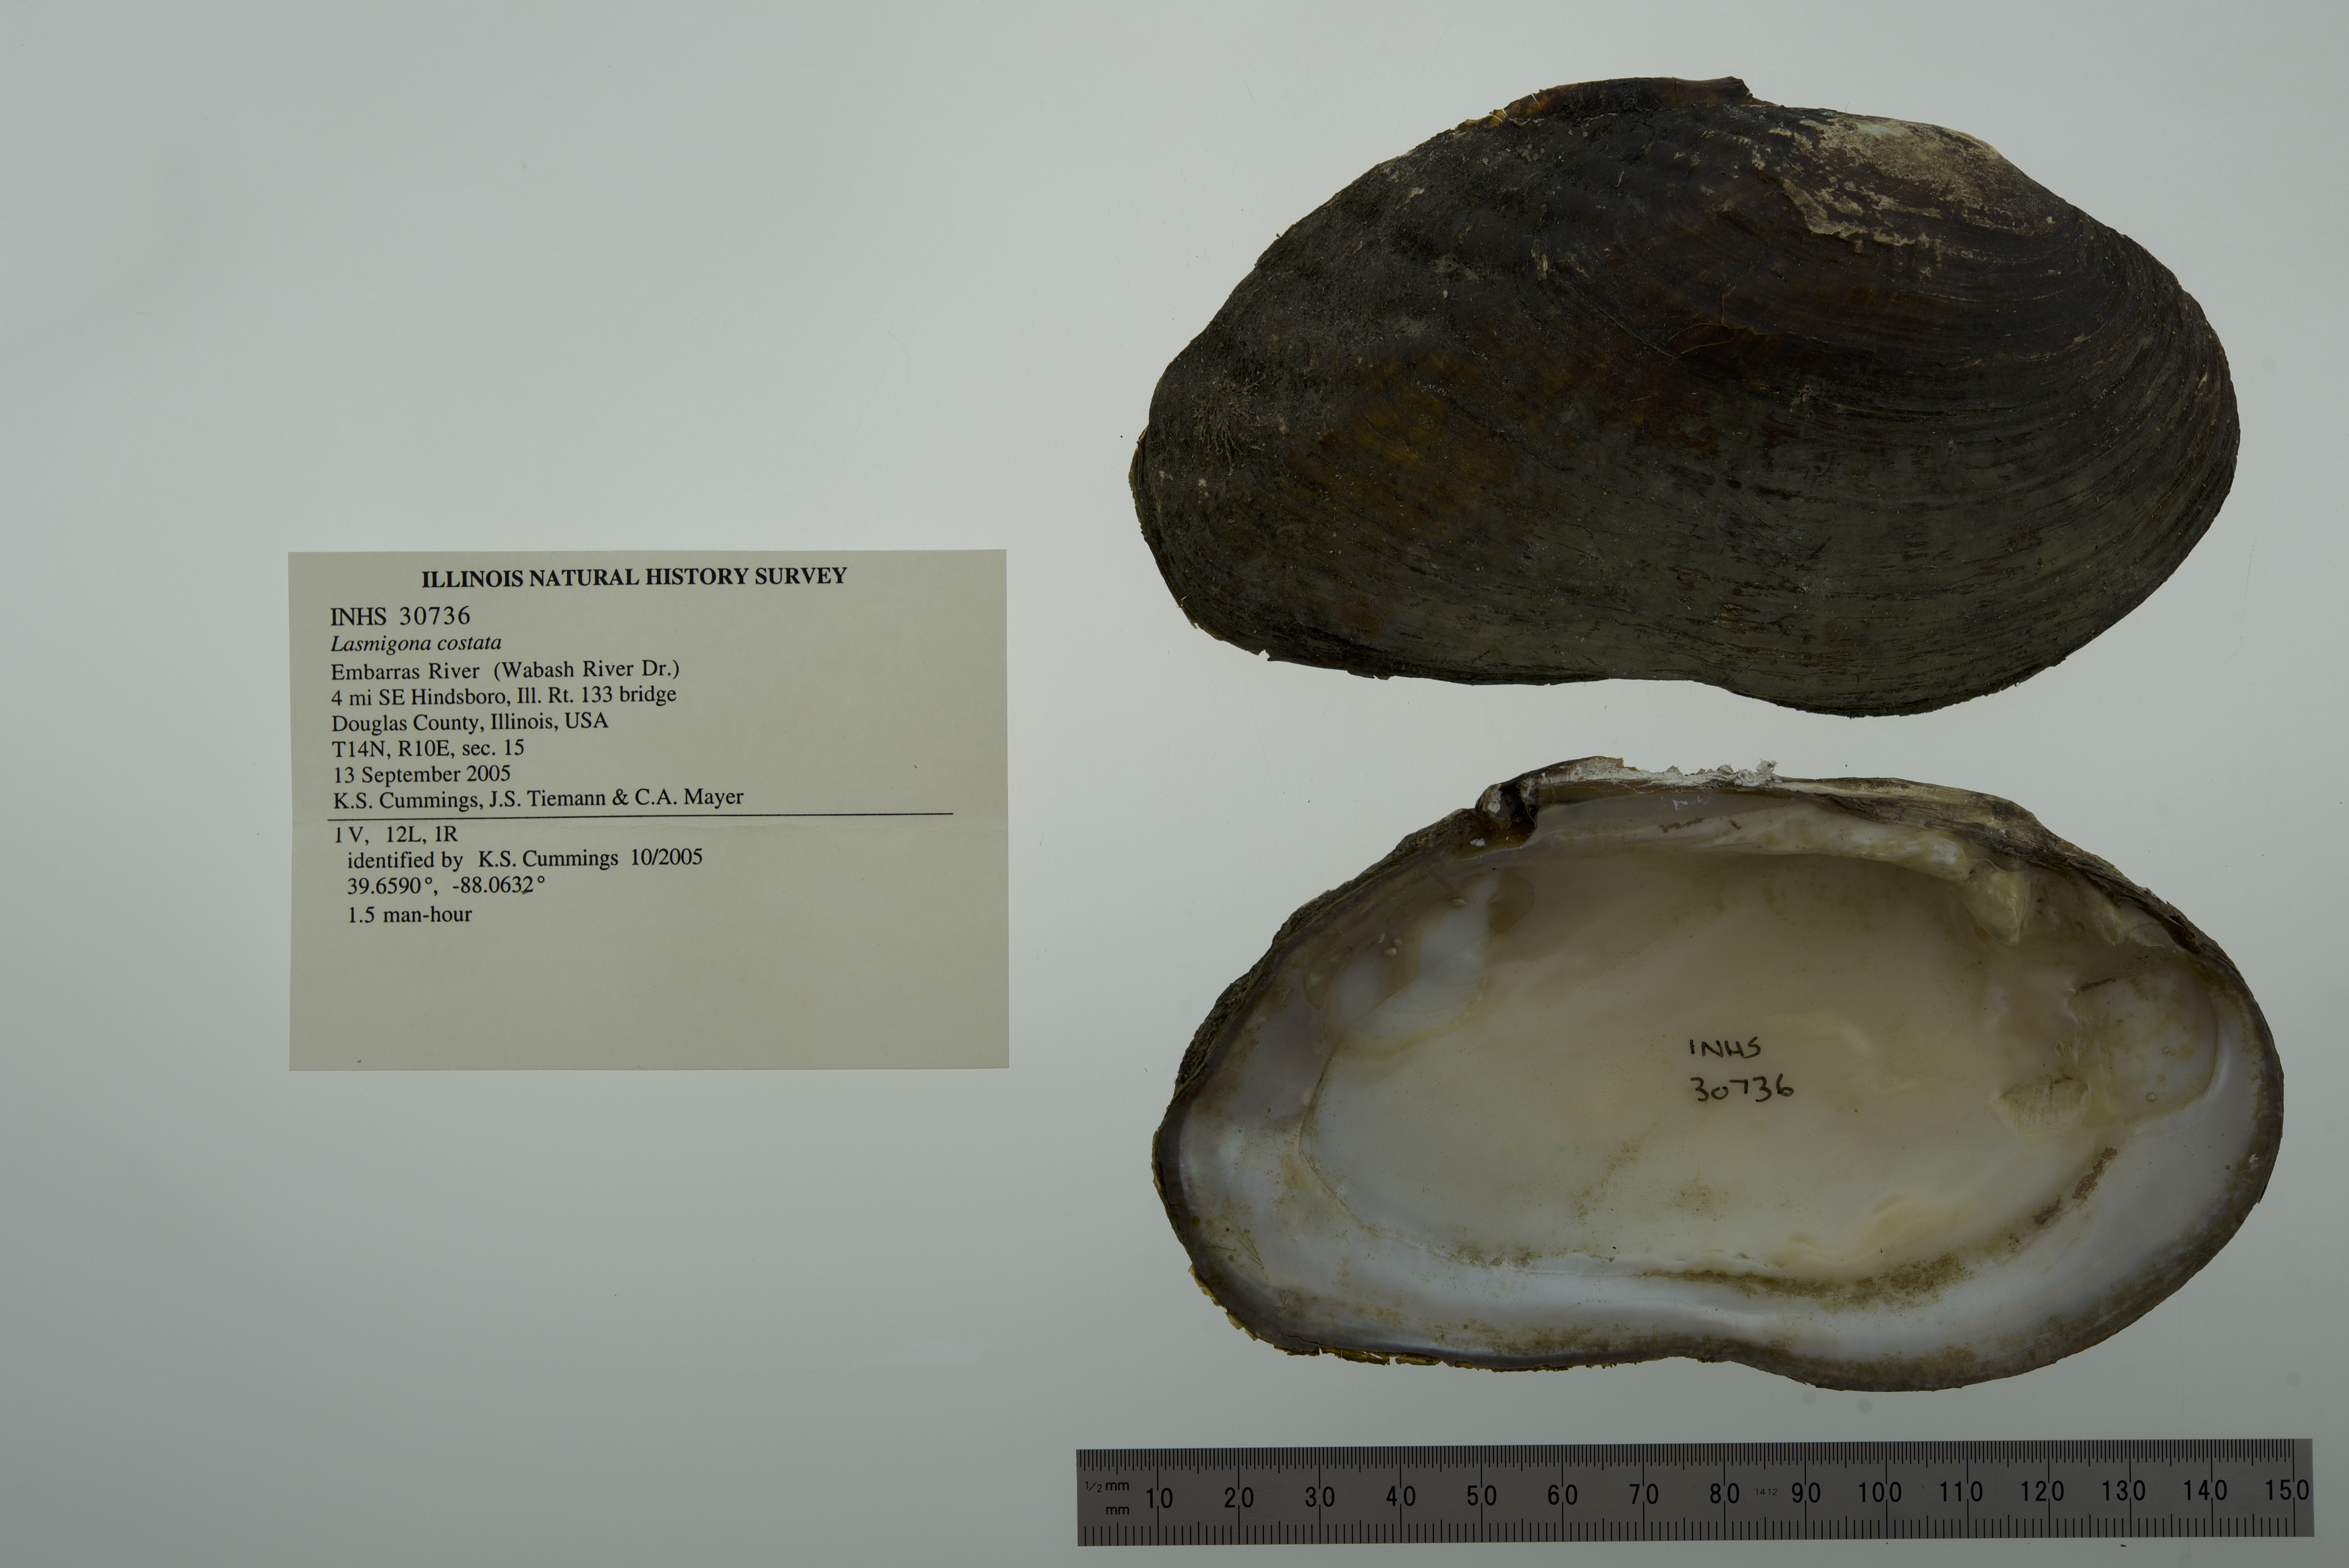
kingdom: Animalia
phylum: Mollusca
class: Bivalvia
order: Unionida
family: Unionidae
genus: Lasmigona
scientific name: Lasmigona costata
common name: Flutedshell
